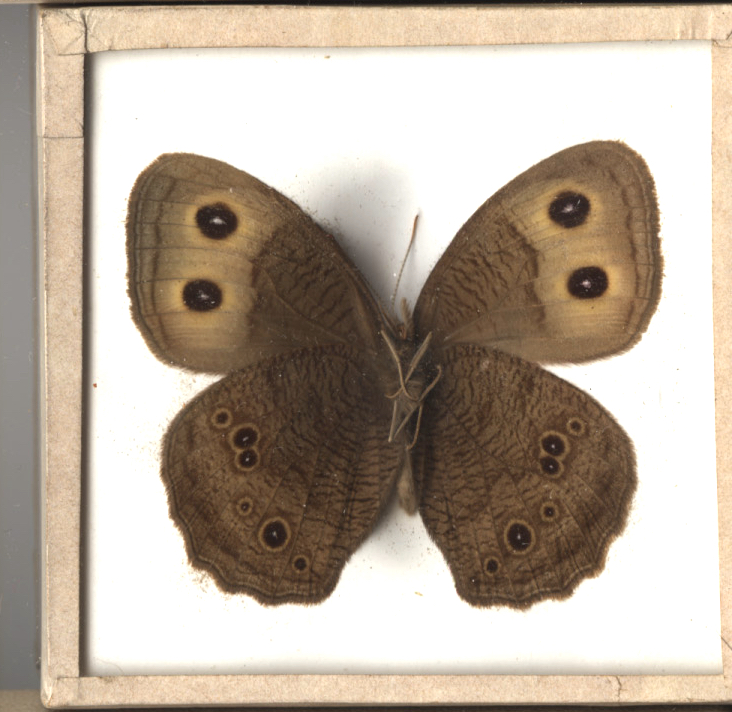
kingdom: Animalia
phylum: Arthropoda
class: Insecta
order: Lepidoptera
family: Nymphalidae
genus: Cercyonis
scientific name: Cercyonis pegala
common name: Common Wood Nymph
